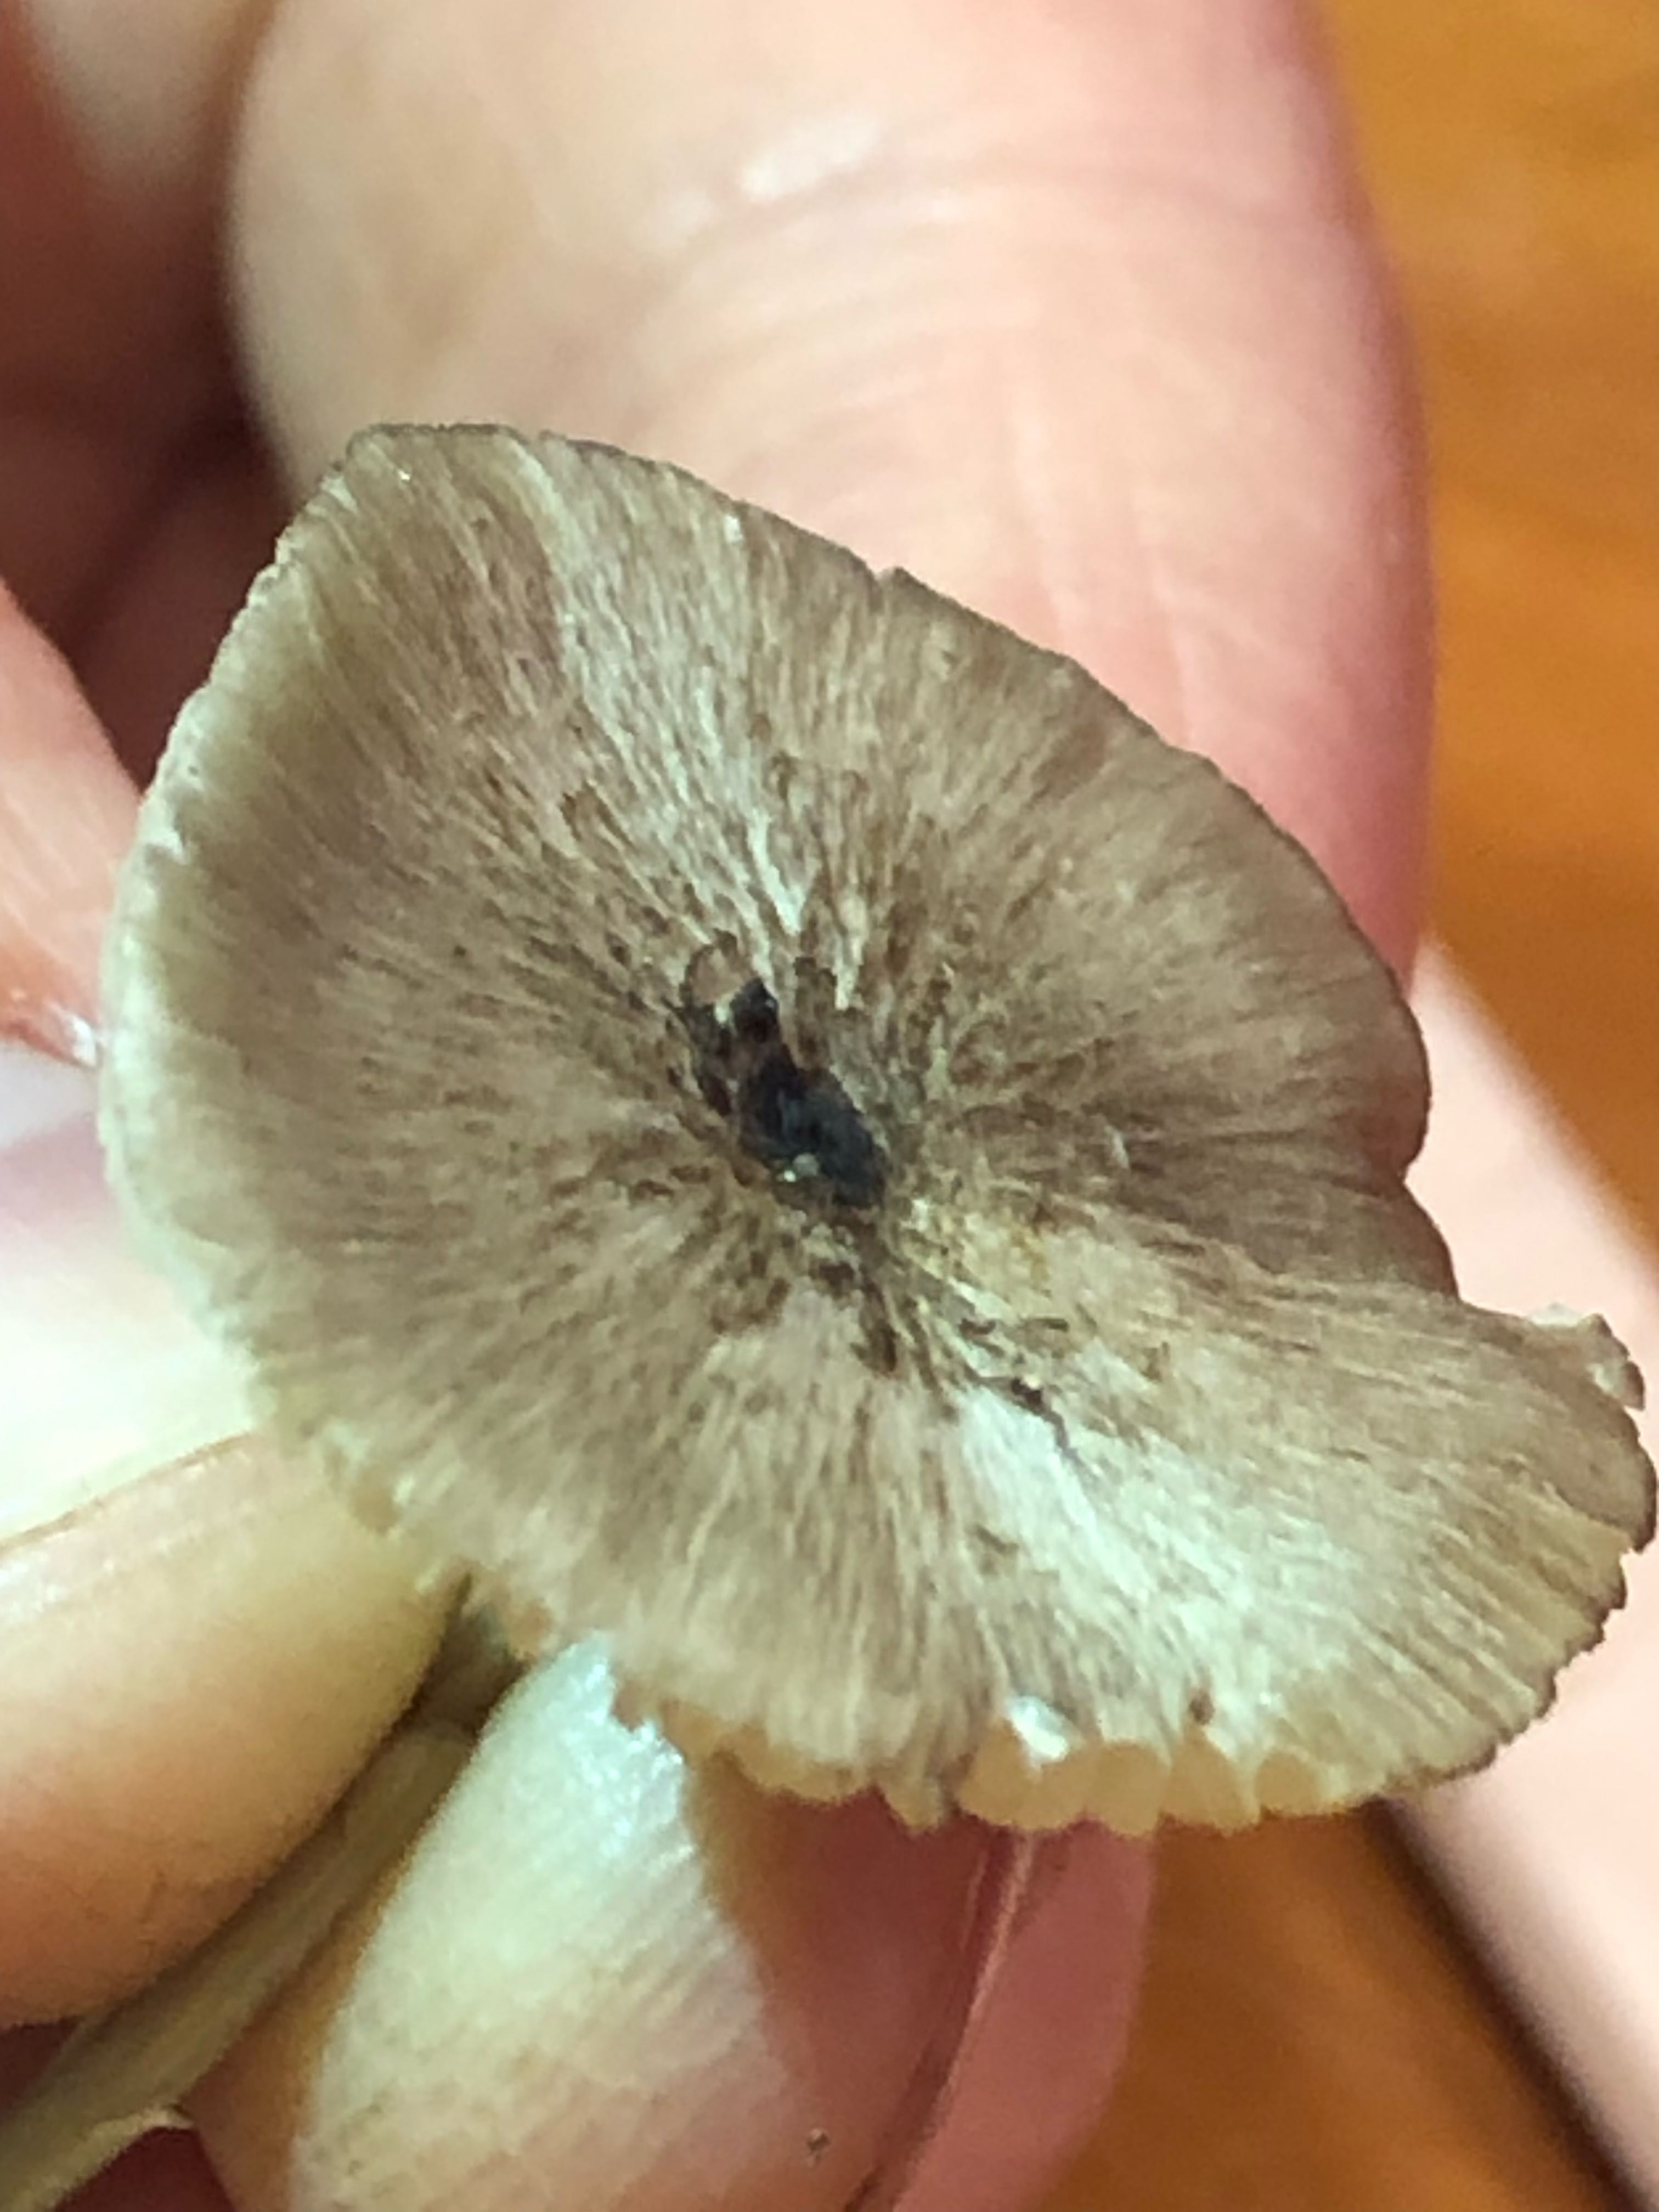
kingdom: Fungi
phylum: Basidiomycota
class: Agaricomycetes
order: Agaricales
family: Entolomataceae
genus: Entoloma
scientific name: Entoloma
